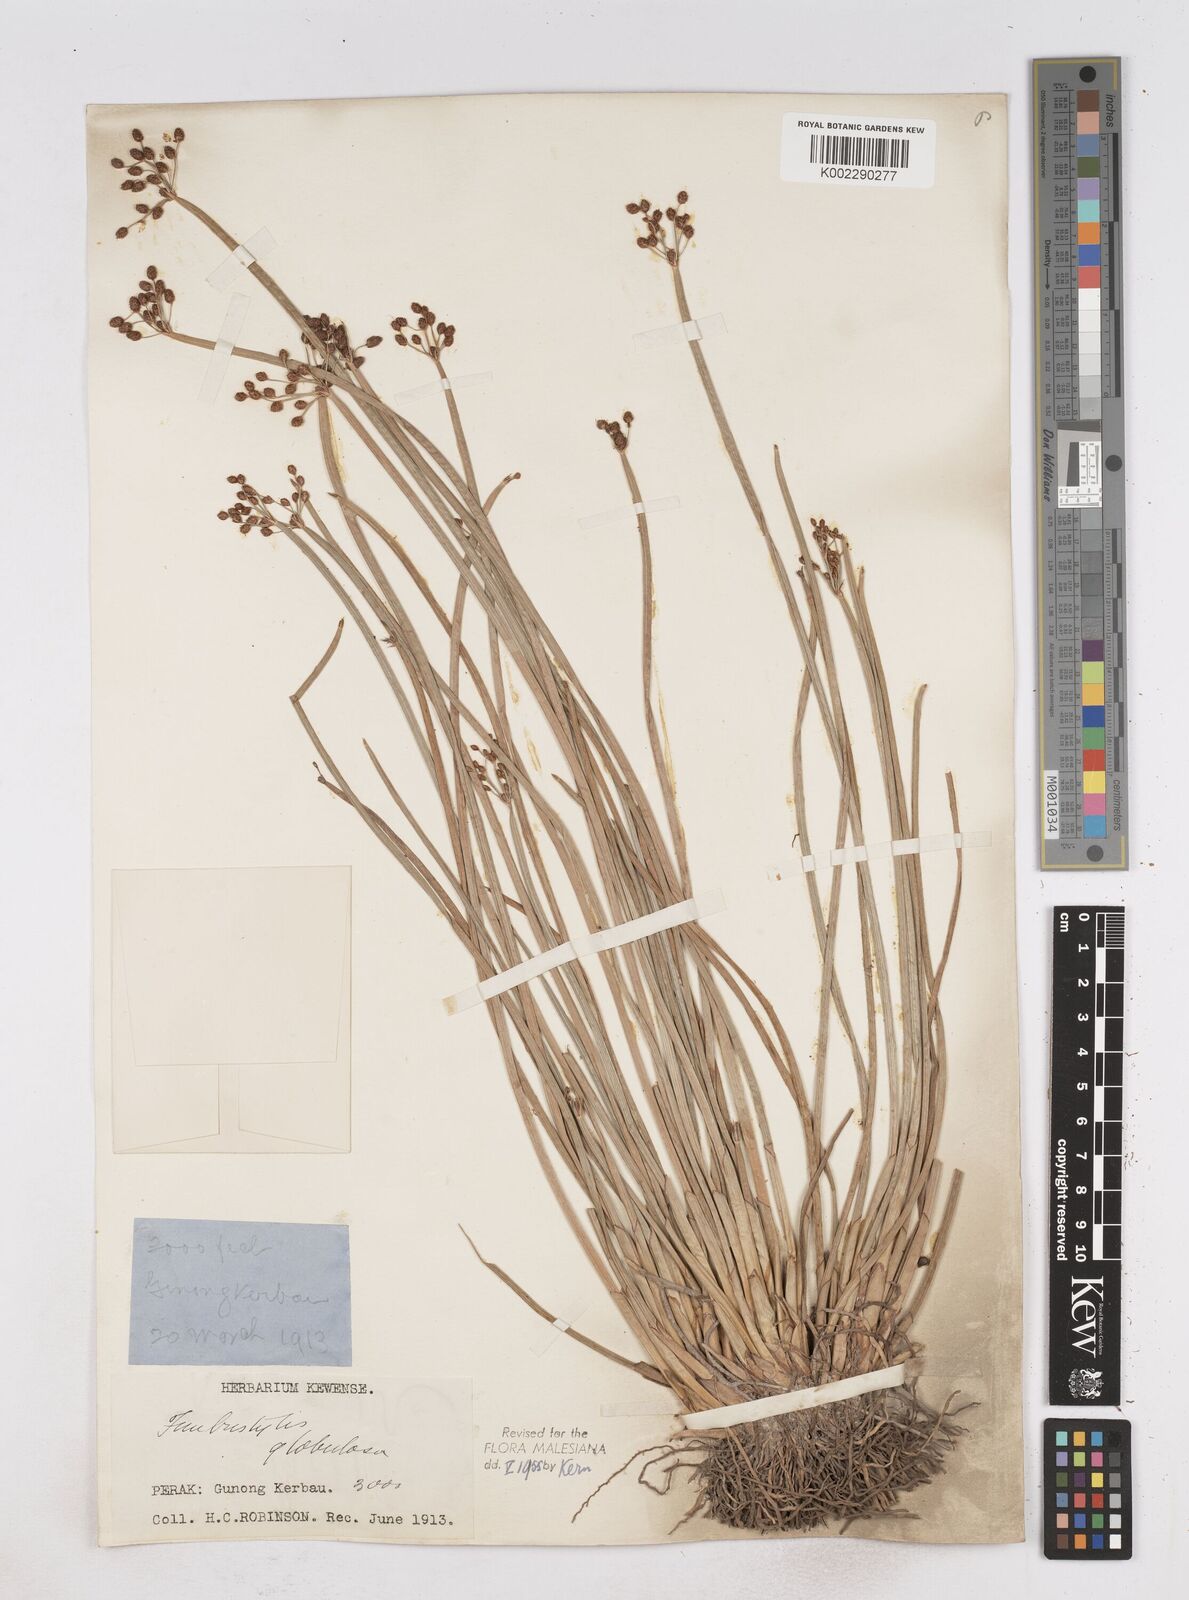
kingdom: Plantae
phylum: Tracheophyta
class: Liliopsida
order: Poales
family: Cyperaceae
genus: Fimbristylis
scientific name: Fimbristylis umbellaris
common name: Globular fimbristylis
